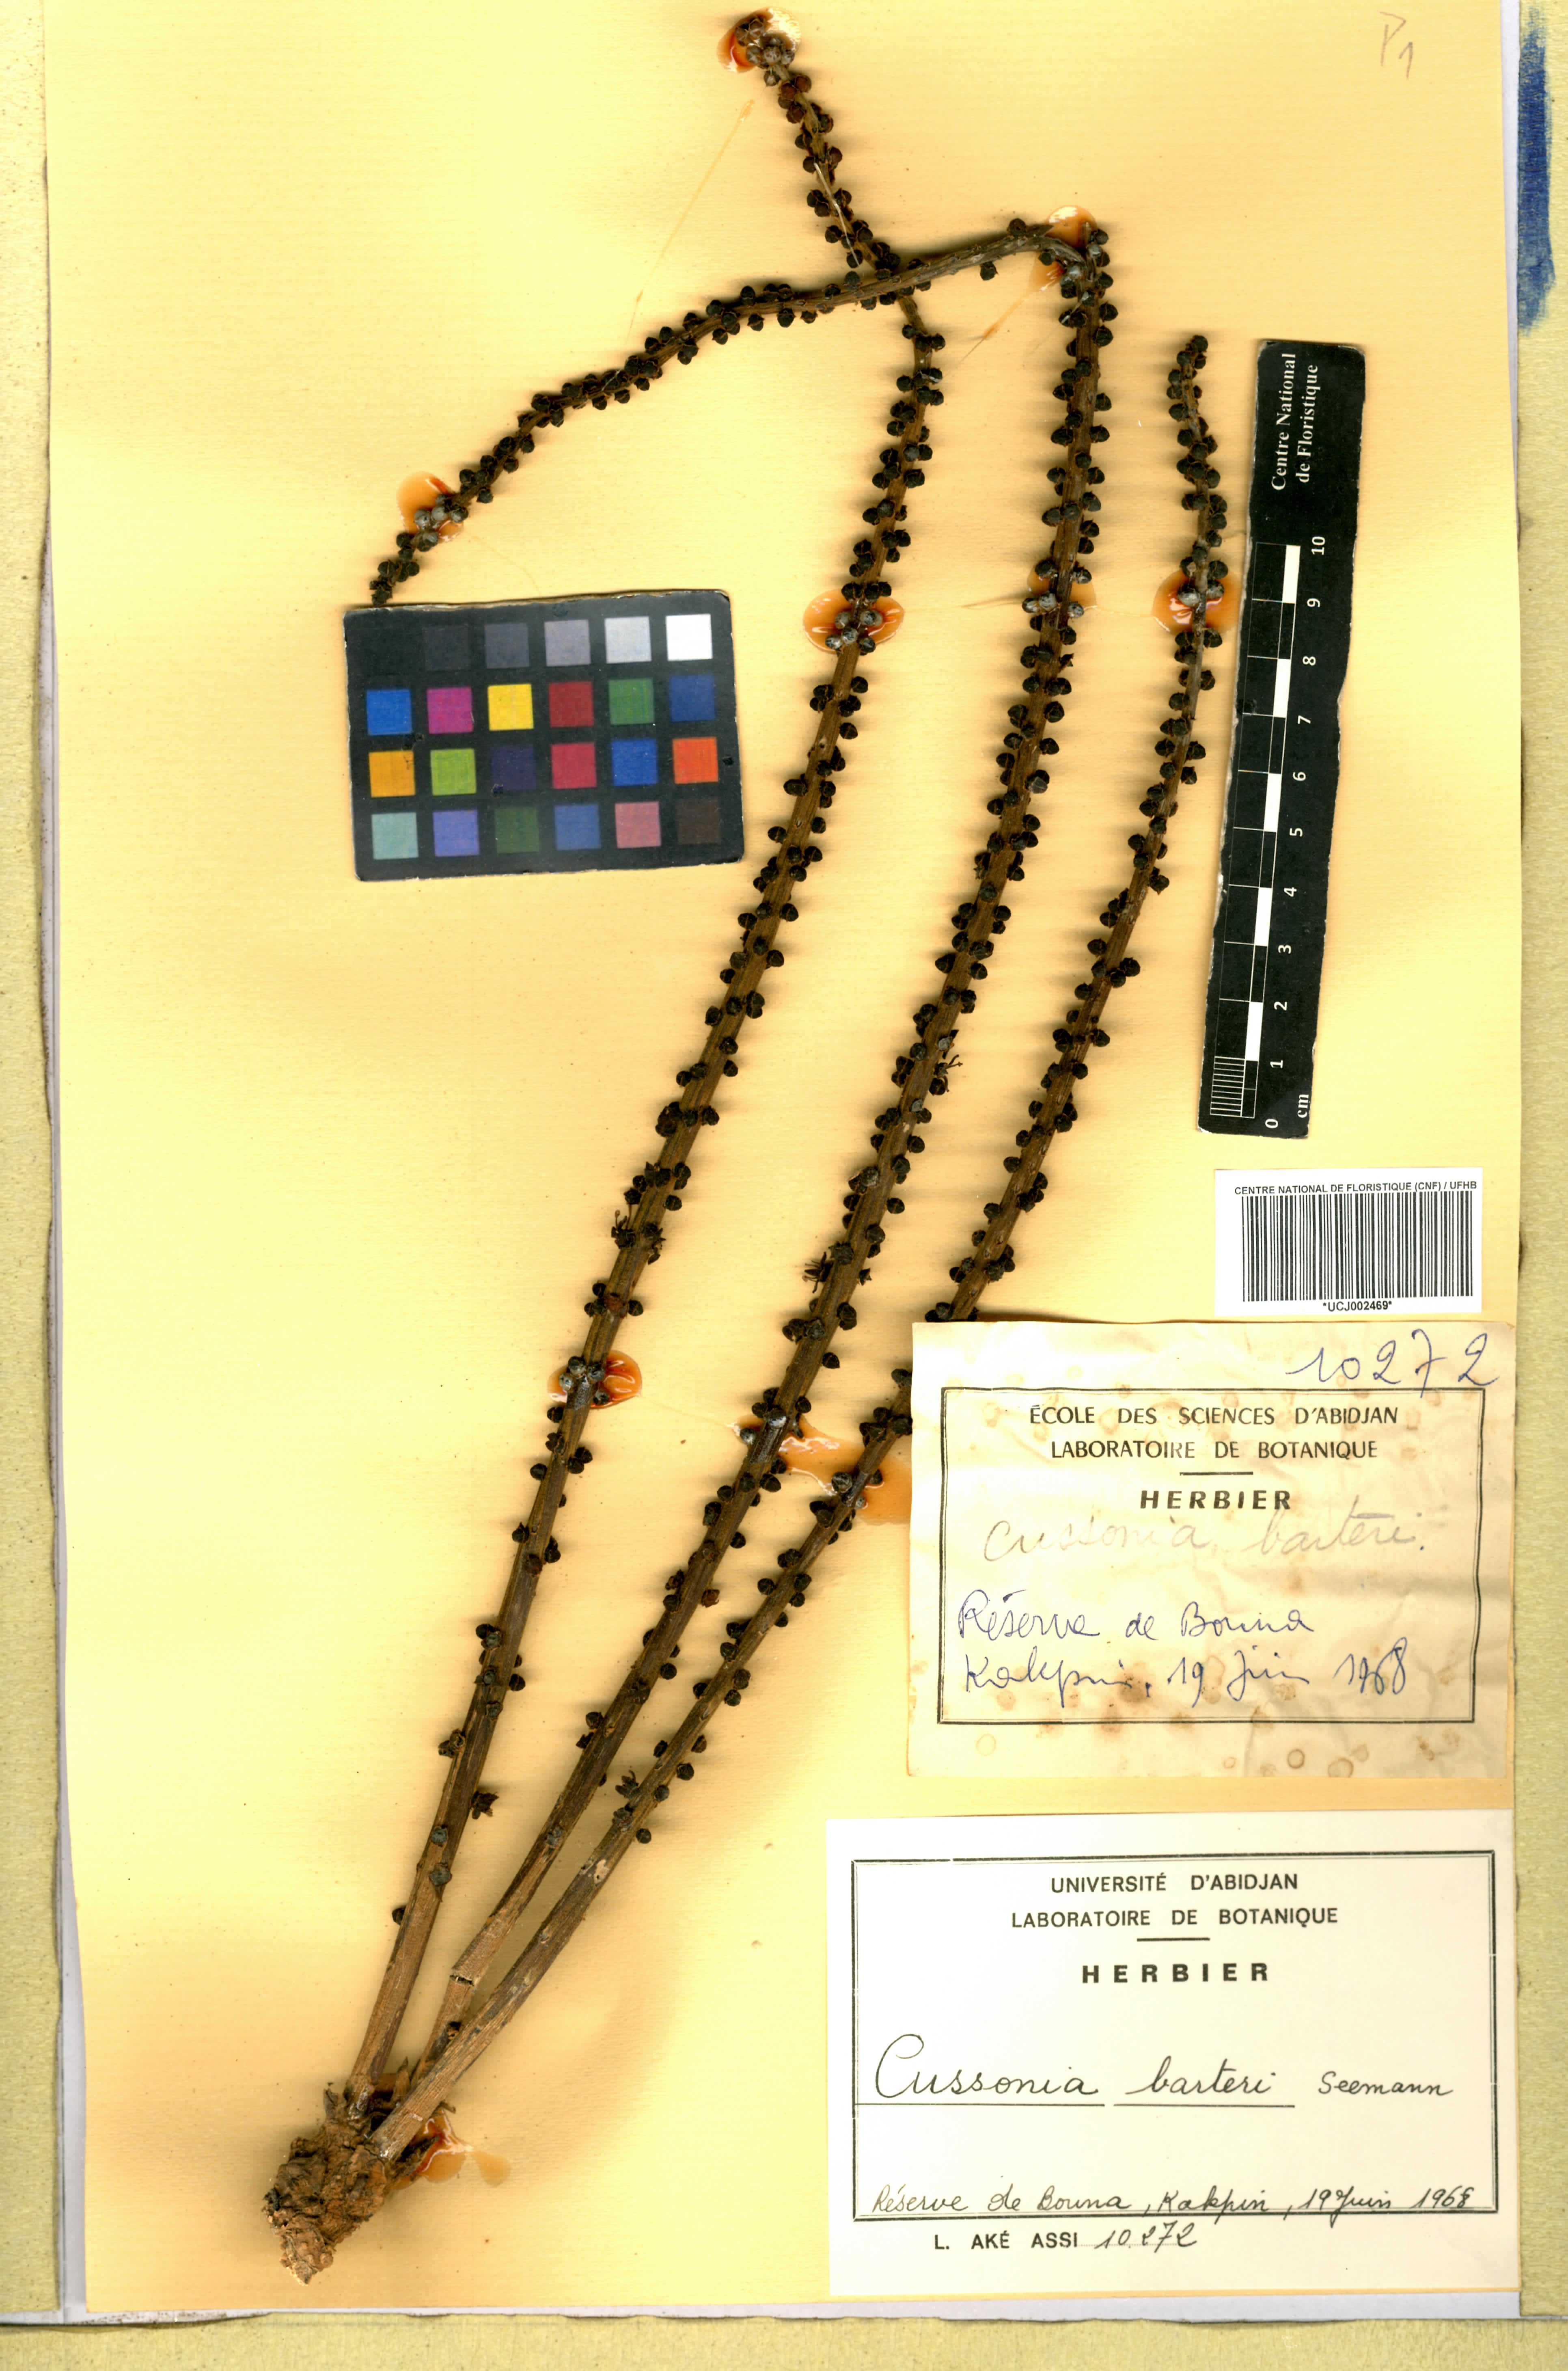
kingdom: Plantae
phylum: Tracheophyta
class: Magnoliopsida
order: Apiales
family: Araliaceae
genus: Cussonia
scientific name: Cussonia arborea
